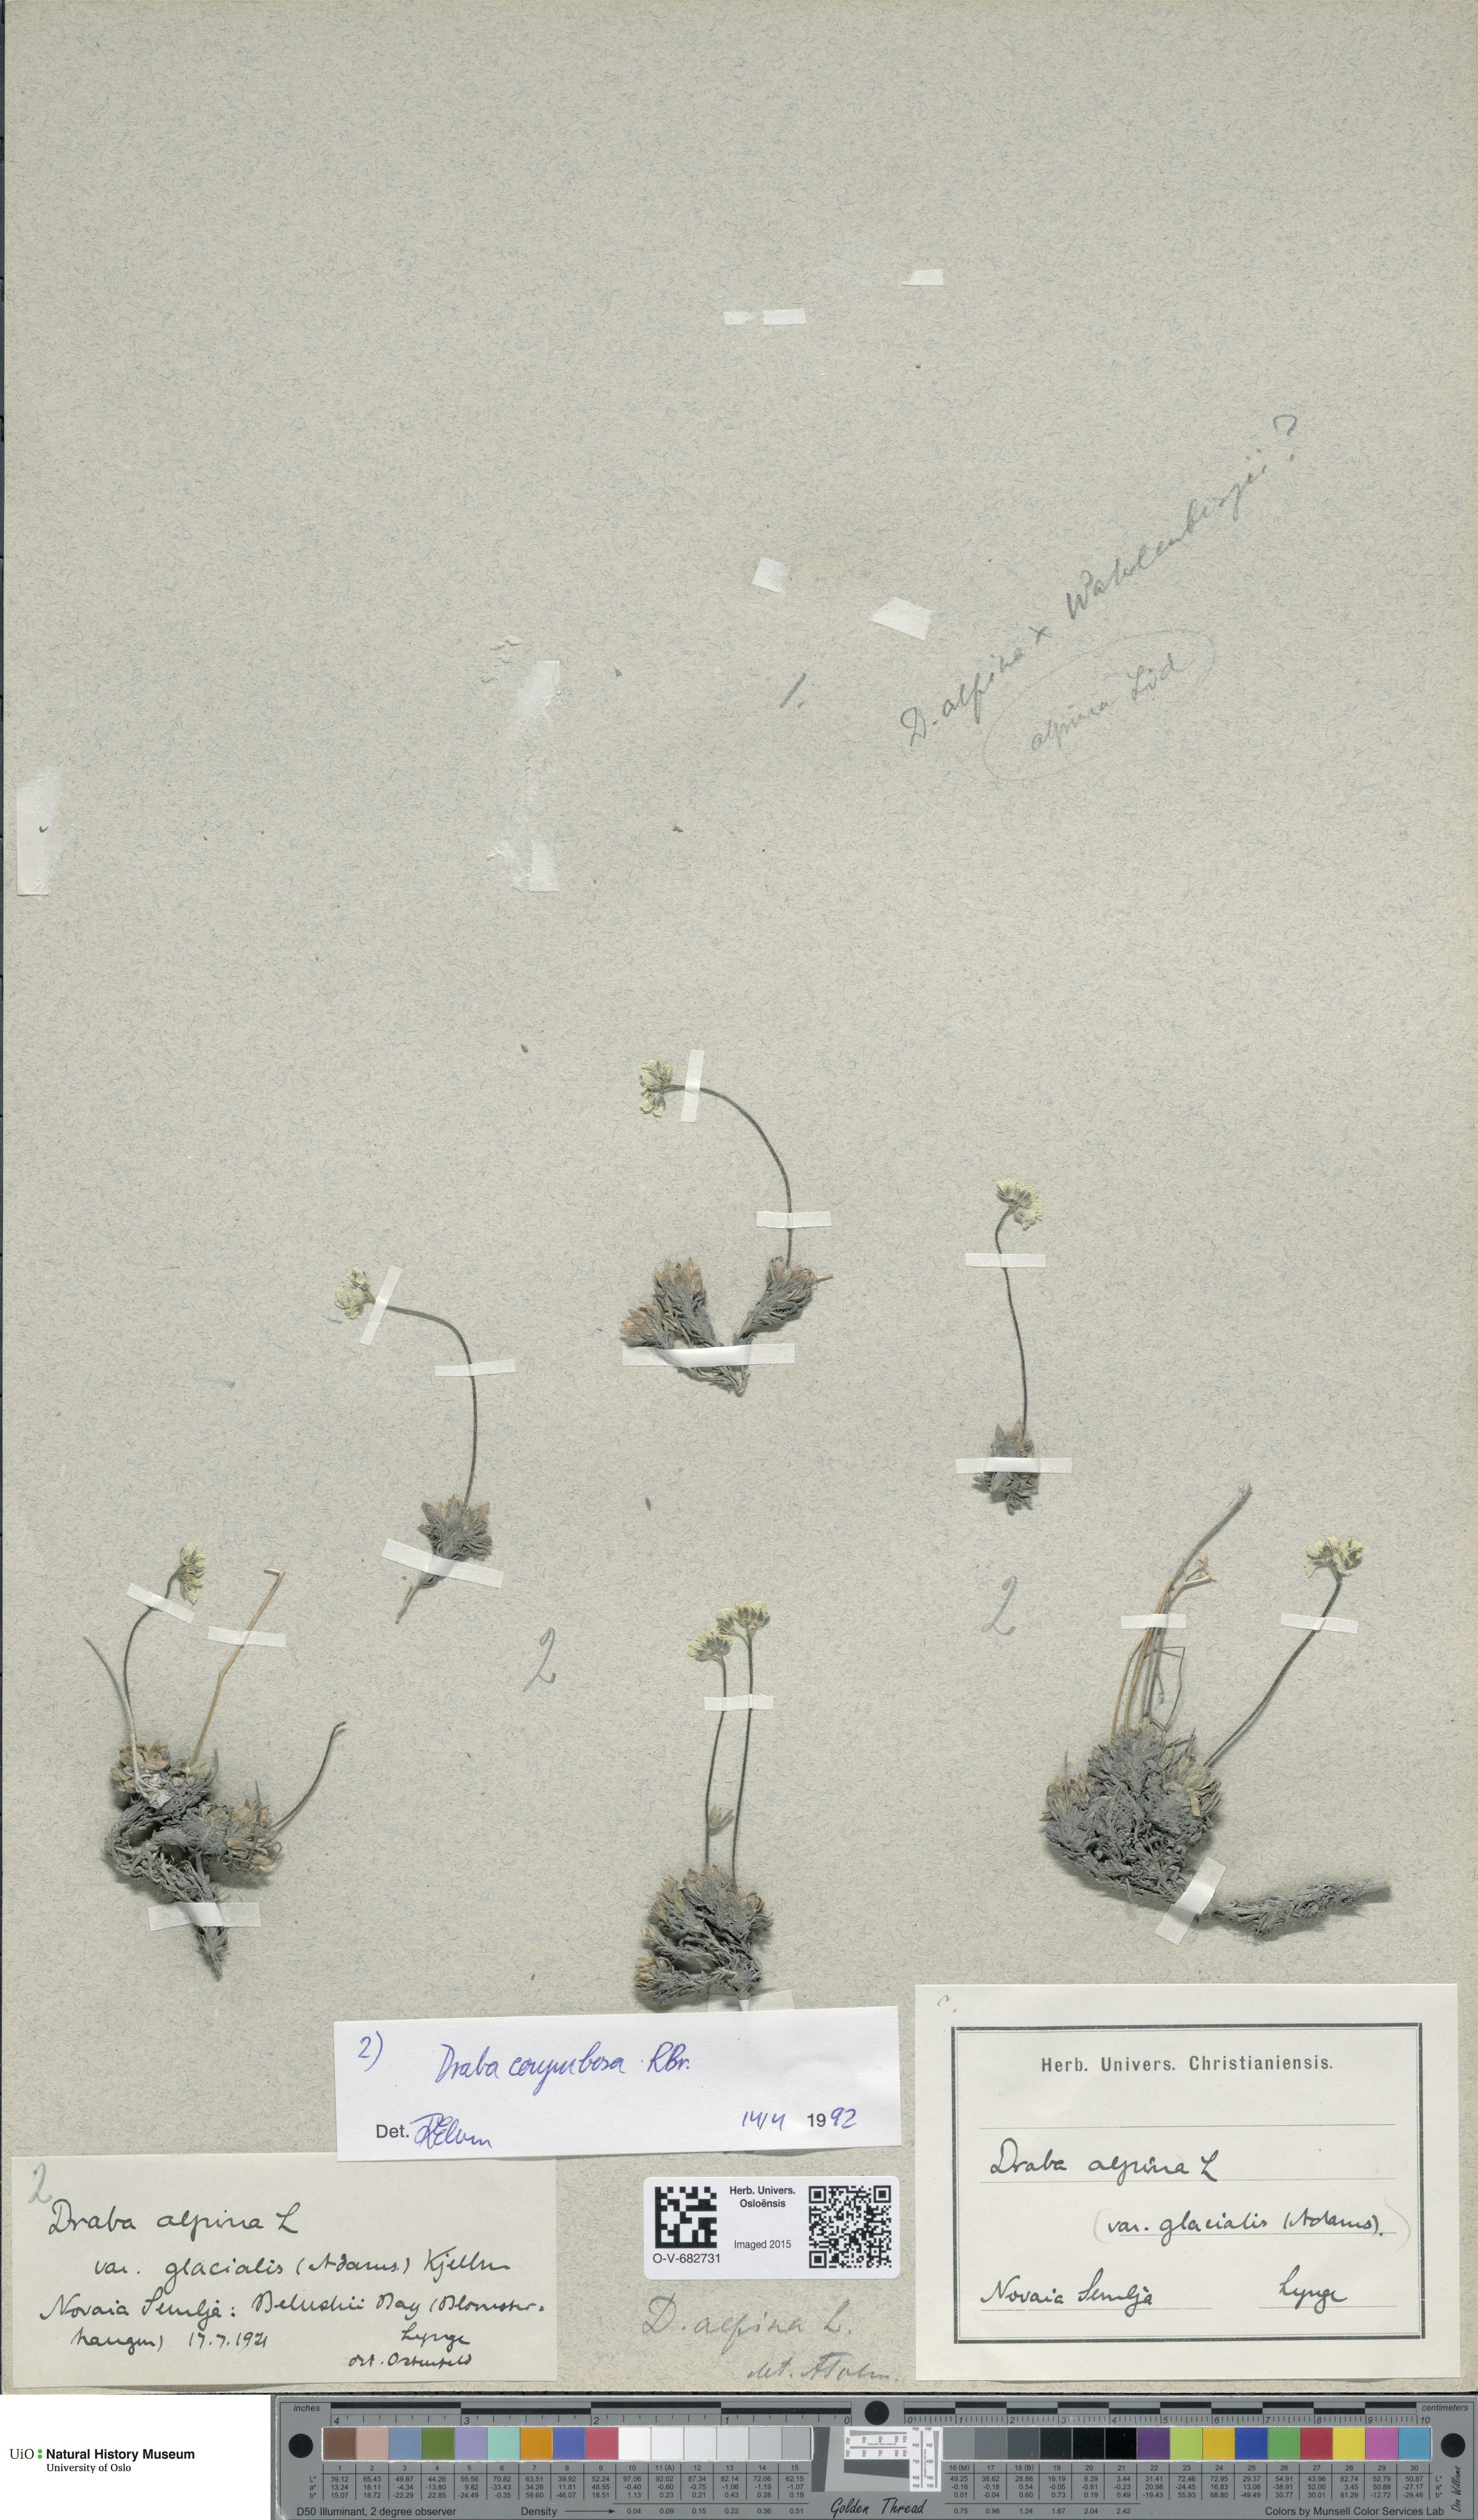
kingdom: Plantae
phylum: Tracheophyta
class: Magnoliopsida
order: Brassicales
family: Brassicaceae
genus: Draba
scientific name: Draba corymbosa
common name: Cushion whitlow-grass
